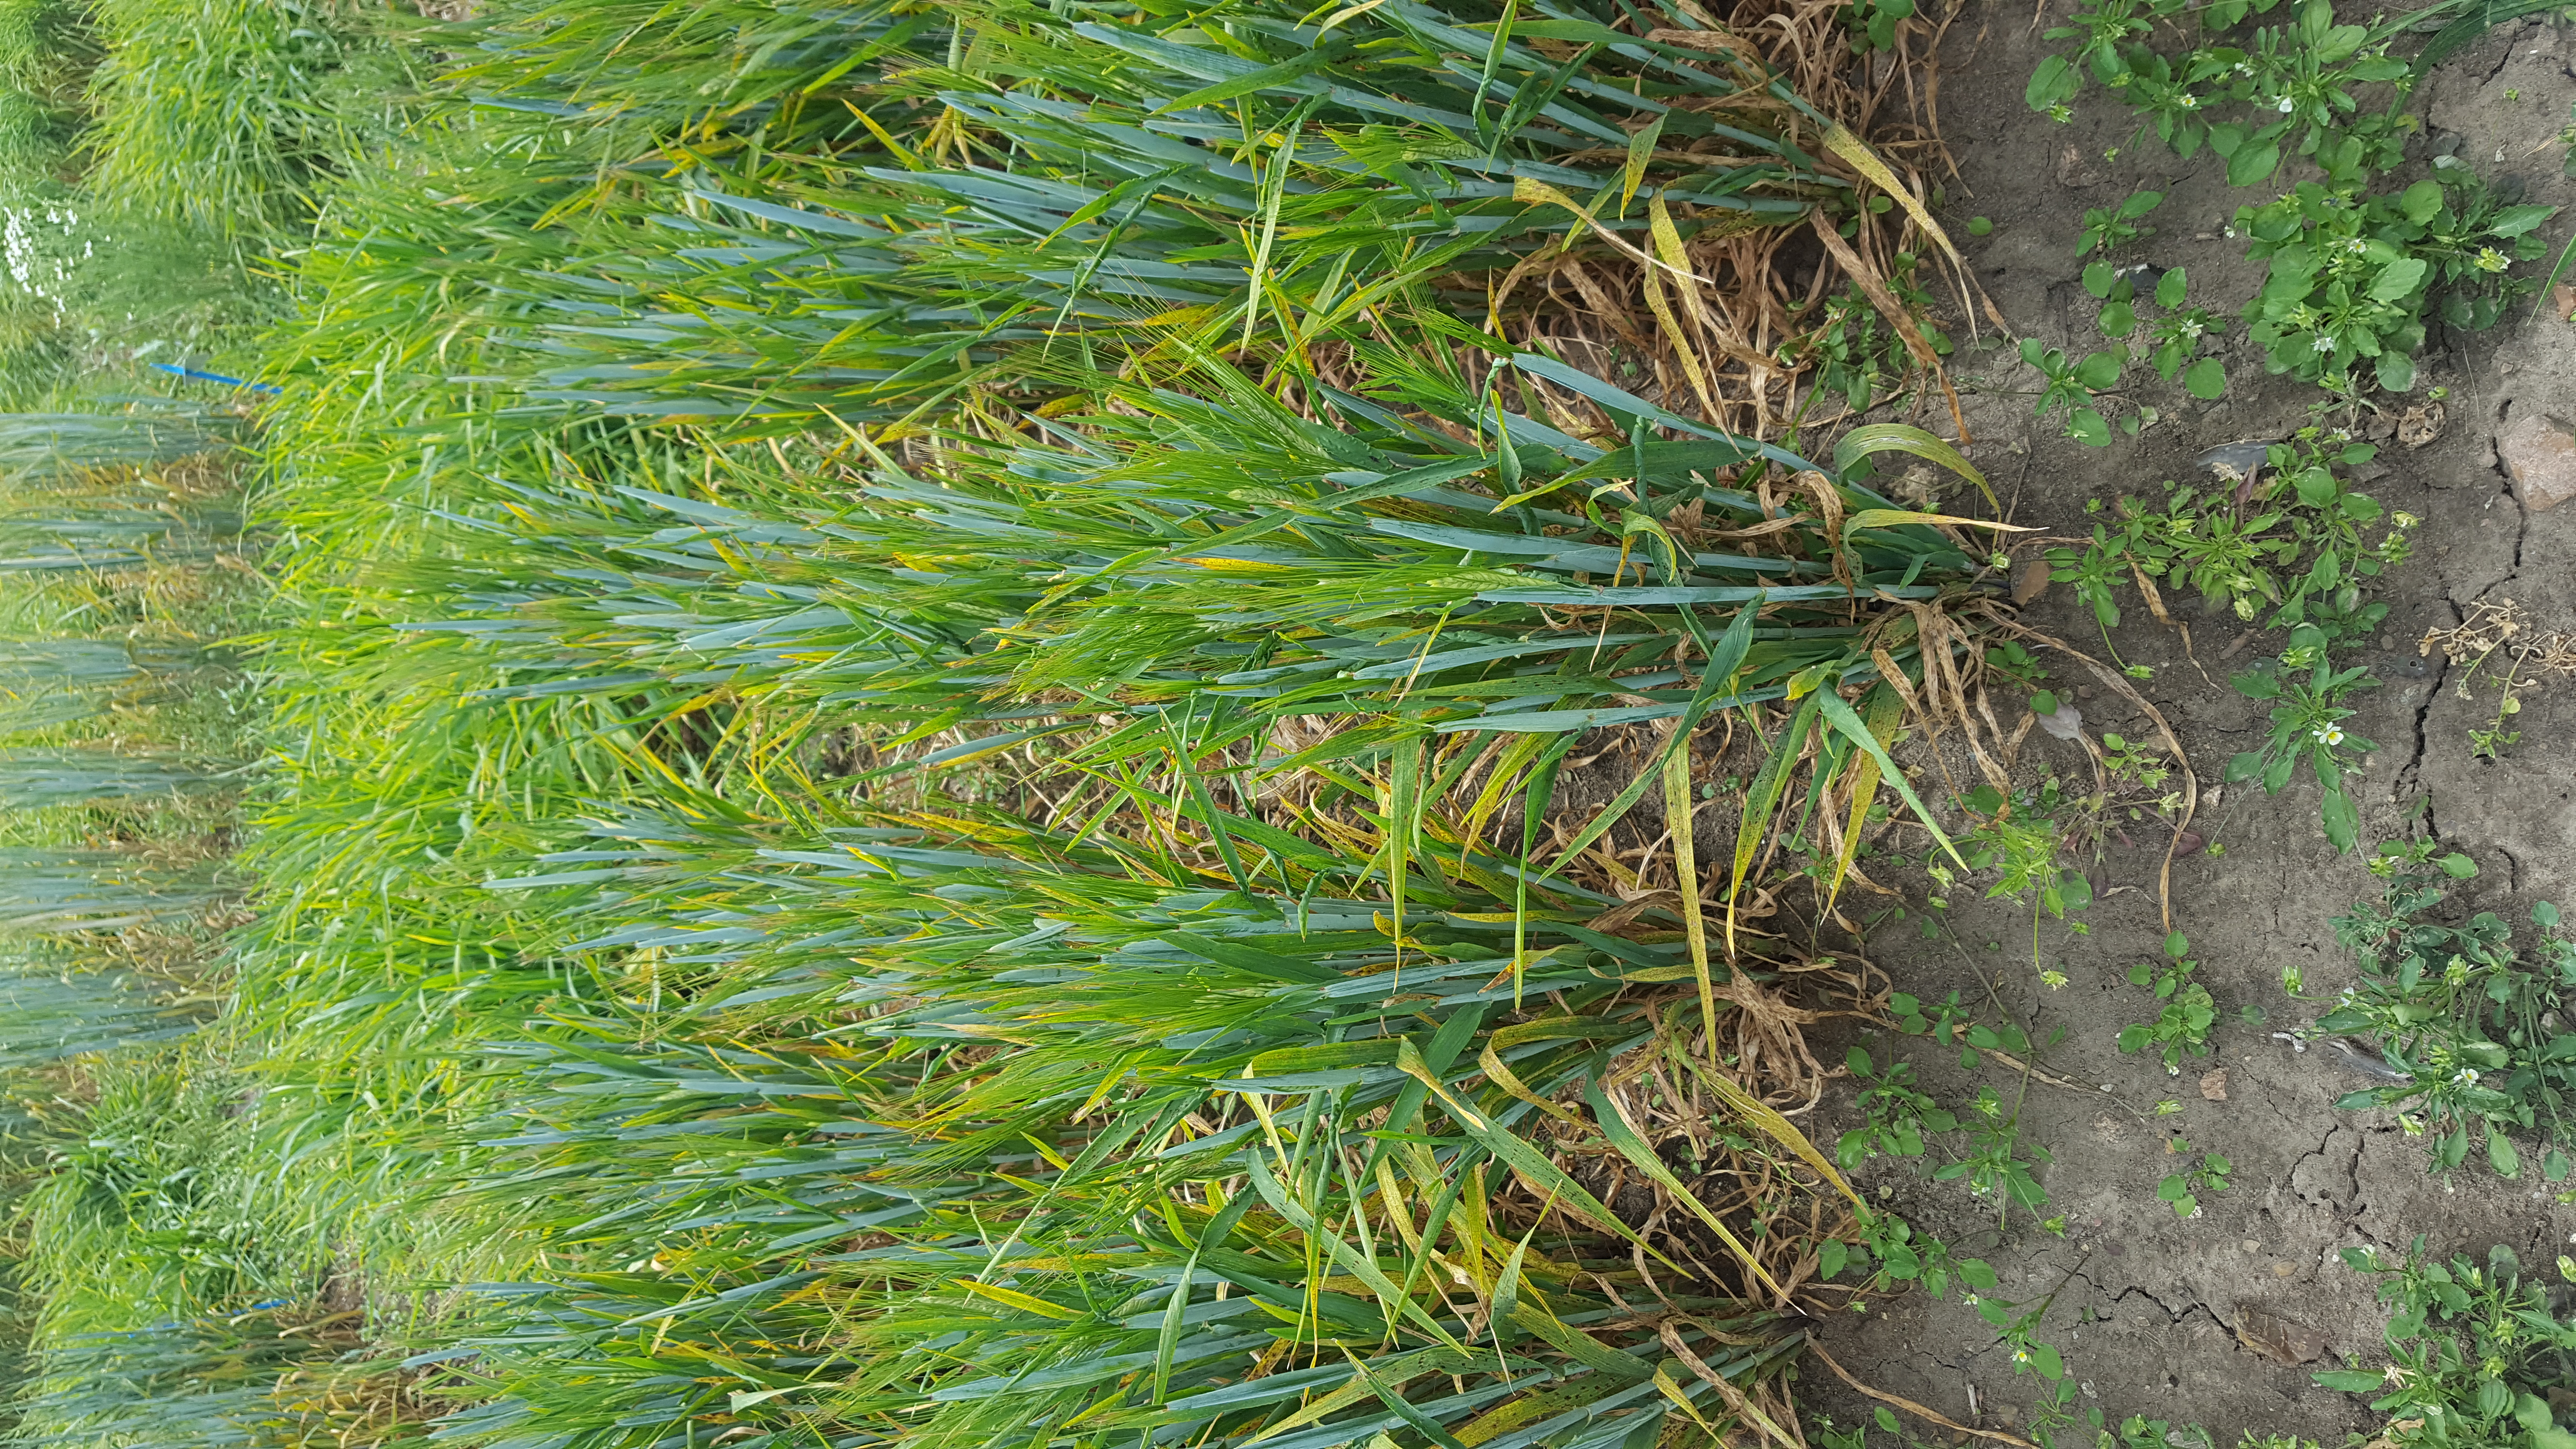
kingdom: Plantae
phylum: Tracheophyta
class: Liliopsida
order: Poales
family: Poaceae
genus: Hordeum
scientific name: Hordeum vulgare
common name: Common barley
